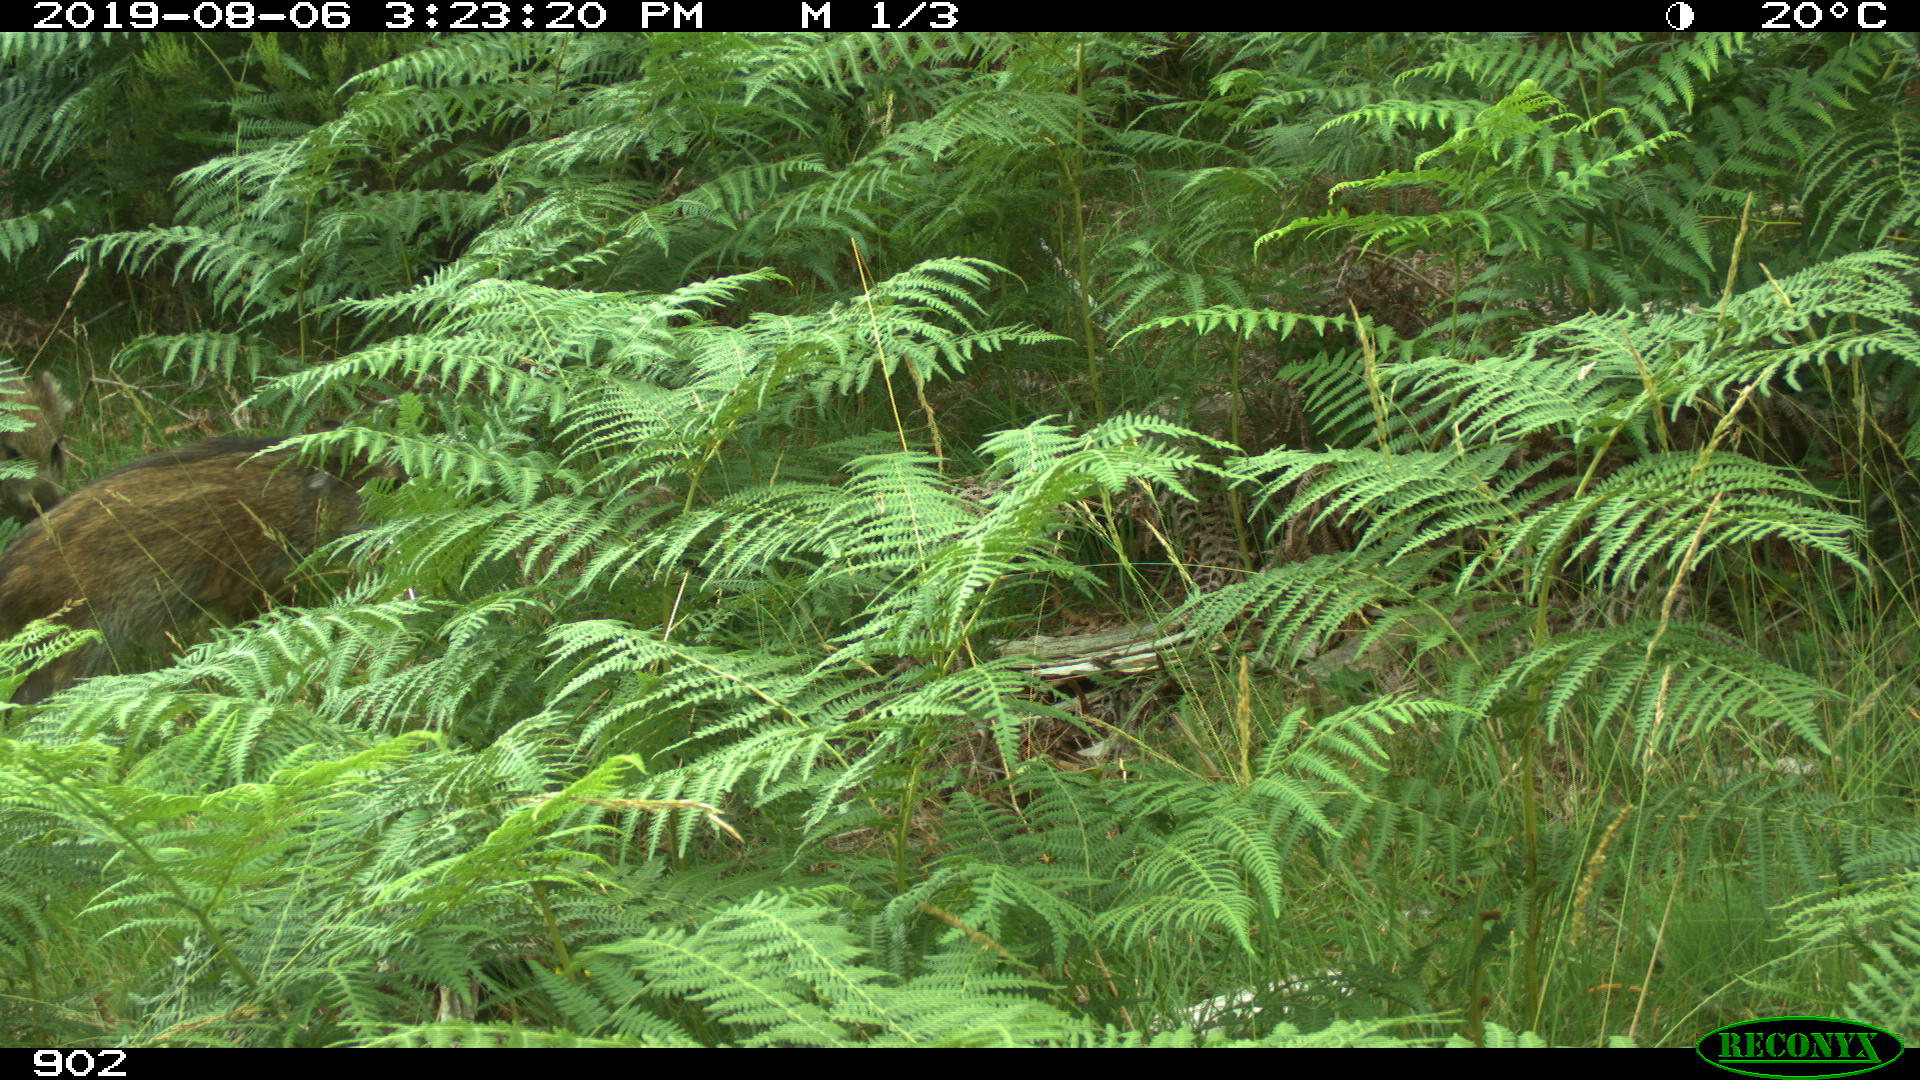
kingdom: Animalia
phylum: Chordata
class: Mammalia
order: Artiodactyla
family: Suidae
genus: Sus
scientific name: Sus scrofa
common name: Wild boar
